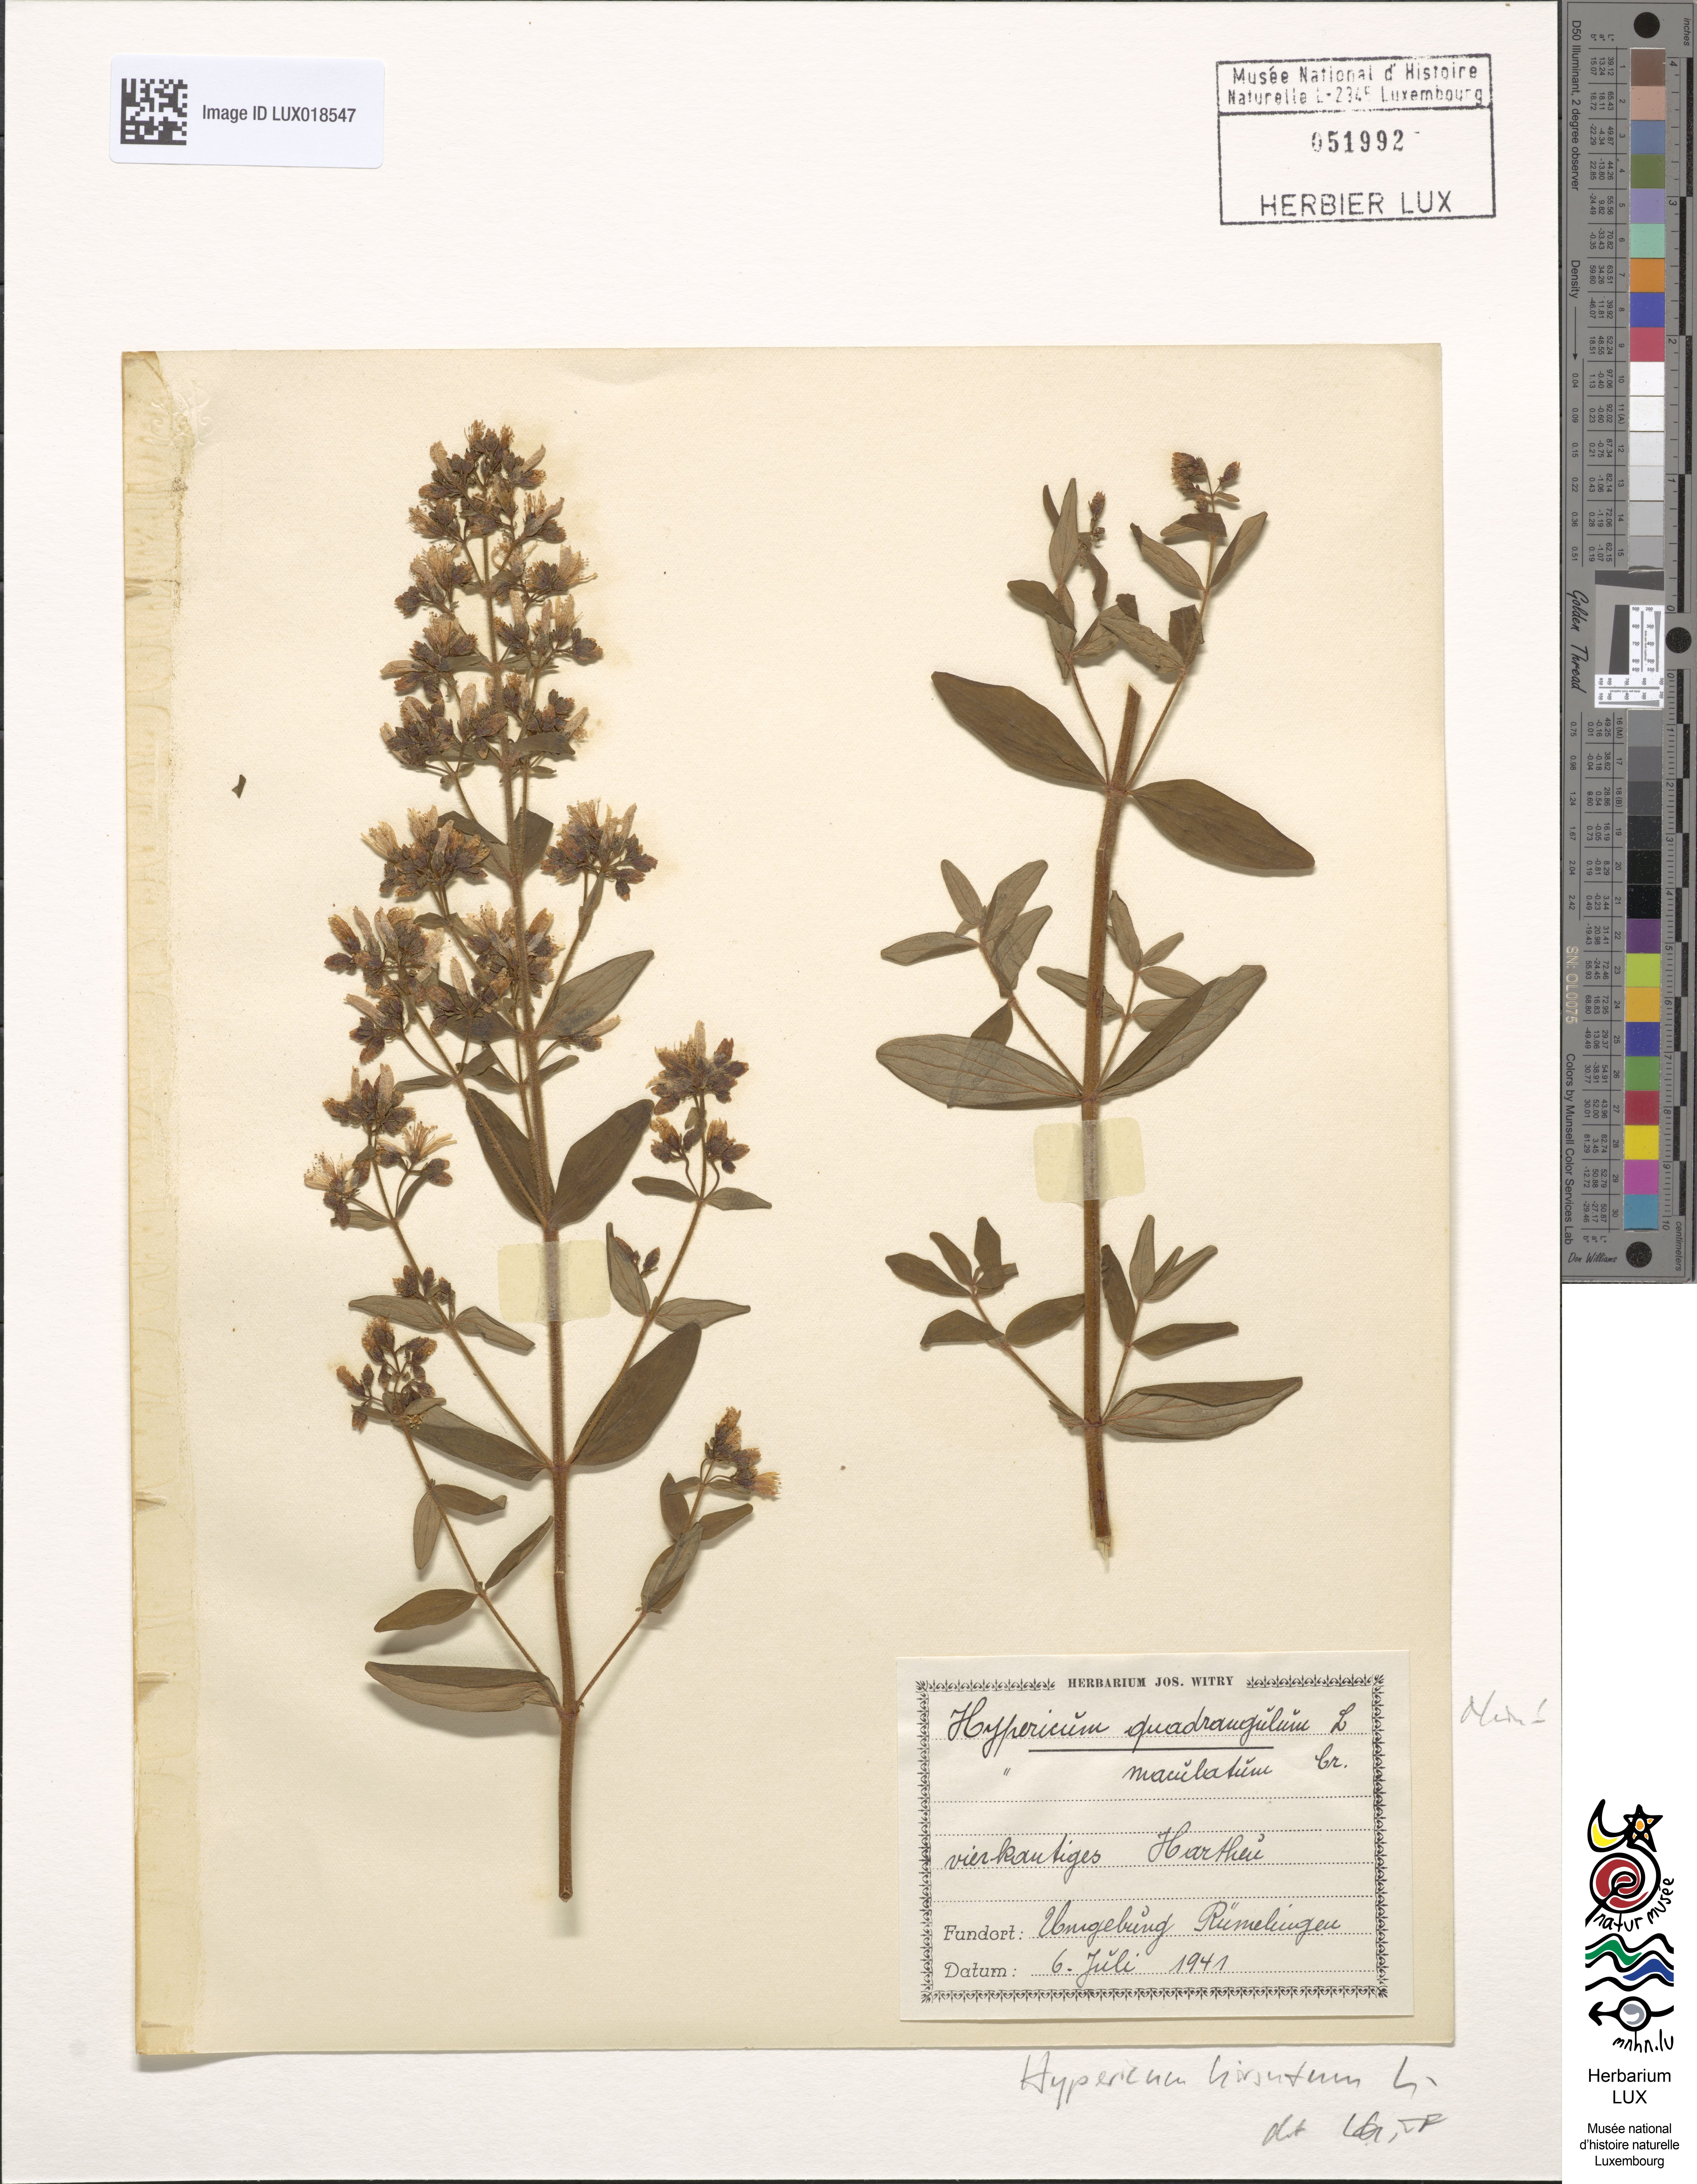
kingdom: Plantae
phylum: Tracheophyta
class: Magnoliopsida
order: Malpighiales
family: Hypericaceae
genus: Hypericum
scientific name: Hypericum hirsutum
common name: Hairy st. john's-wort
